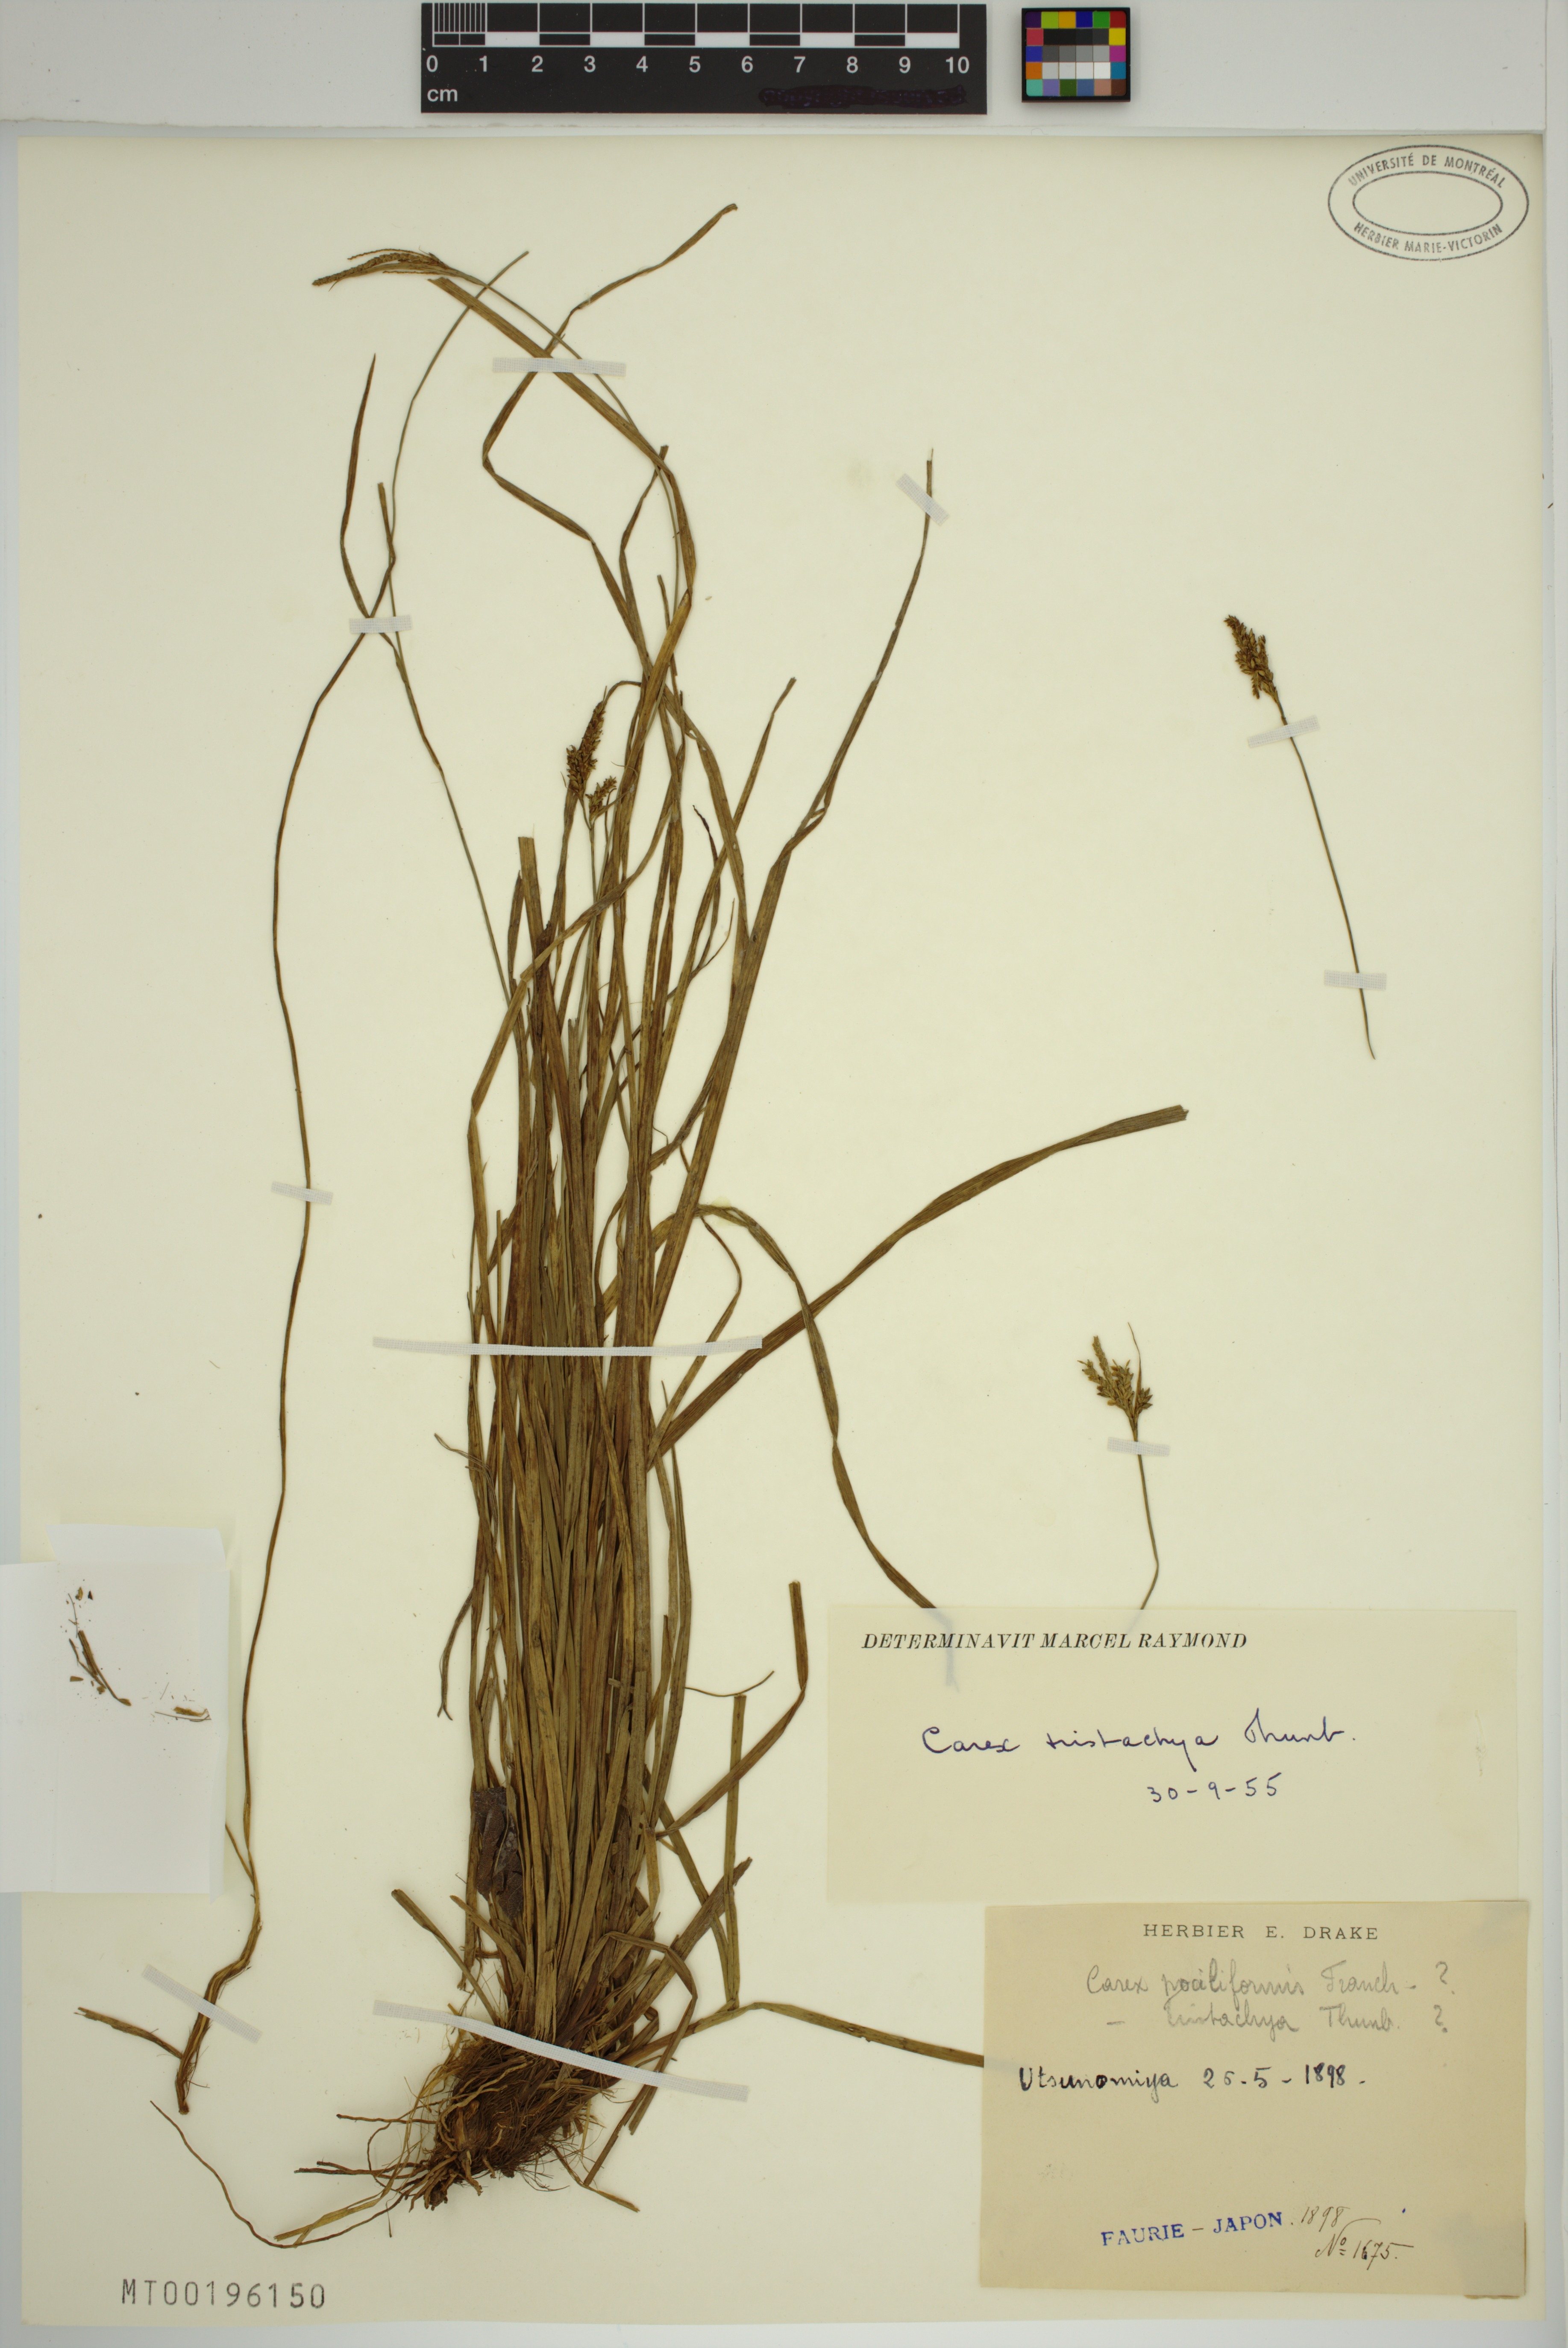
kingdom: Plantae
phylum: Tracheophyta
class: Liliopsida
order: Poales
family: Cyperaceae
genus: Carex
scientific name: Carex tristachya
